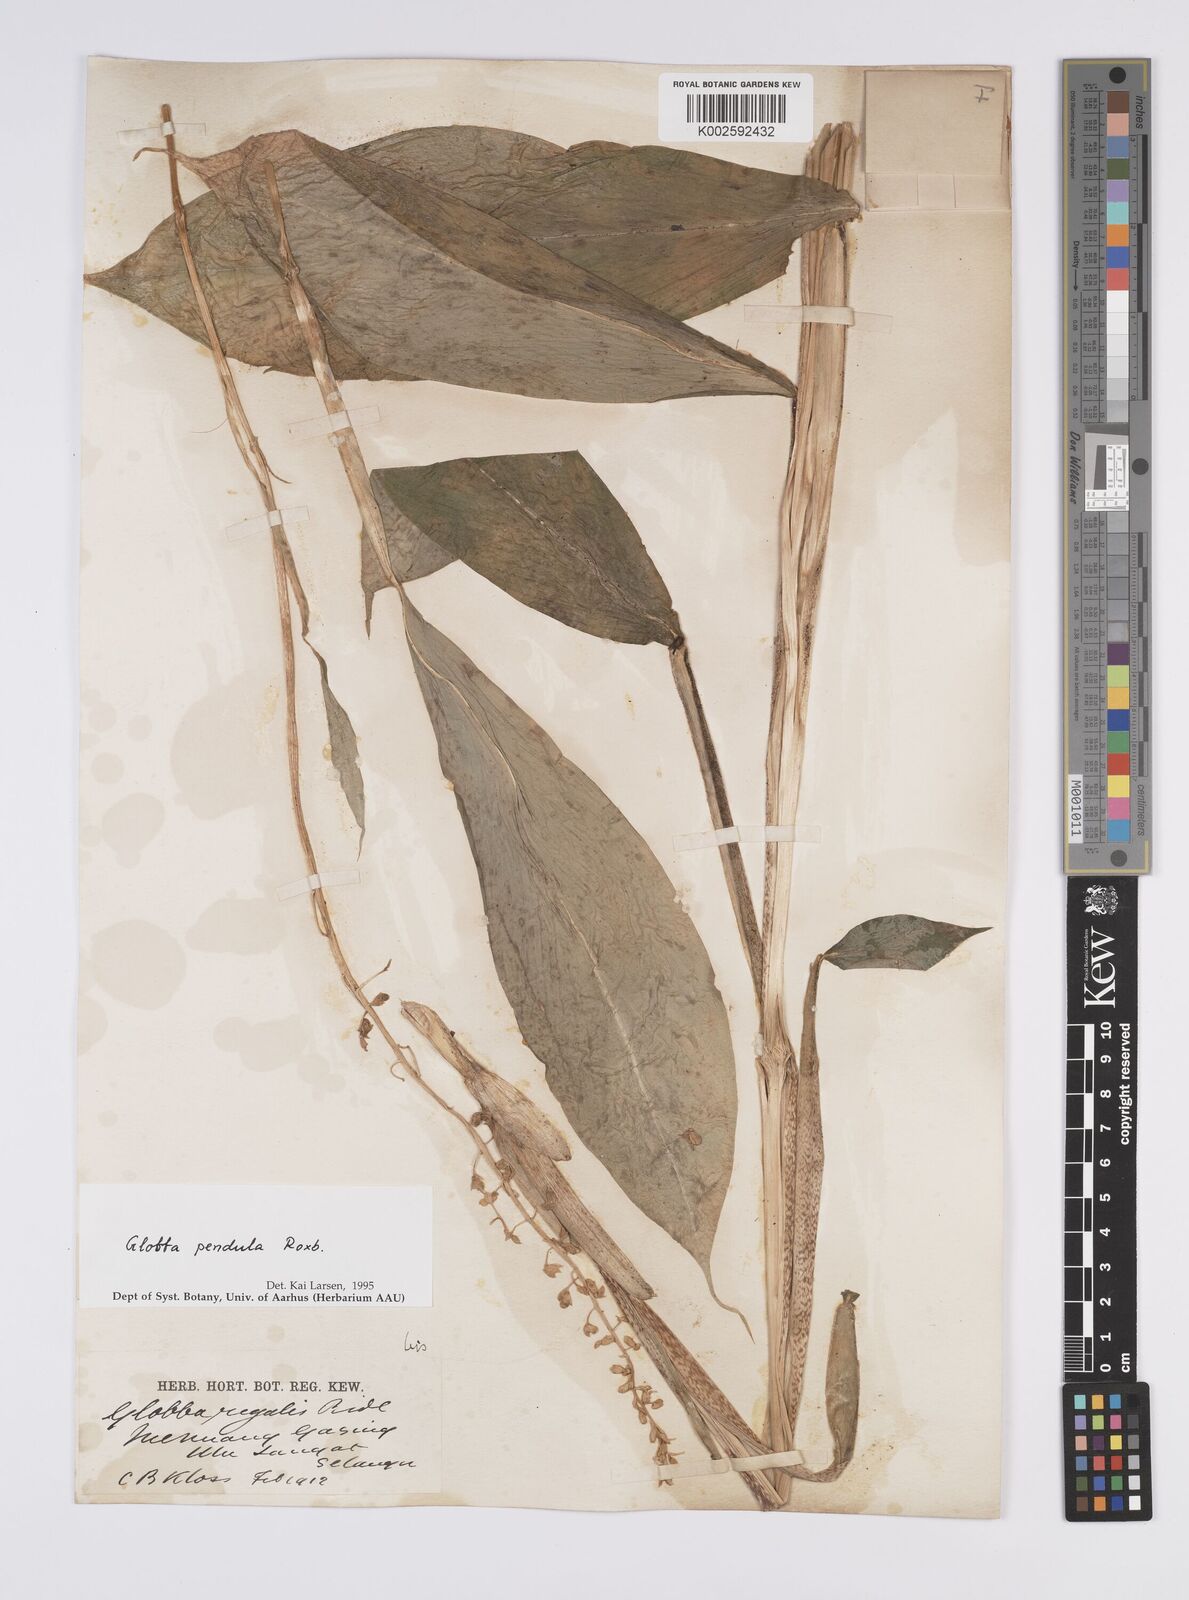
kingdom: Plantae
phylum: Tracheophyta
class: Liliopsida
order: Zingiberales
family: Zingiberaceae
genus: Globba
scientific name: Globba pendula
